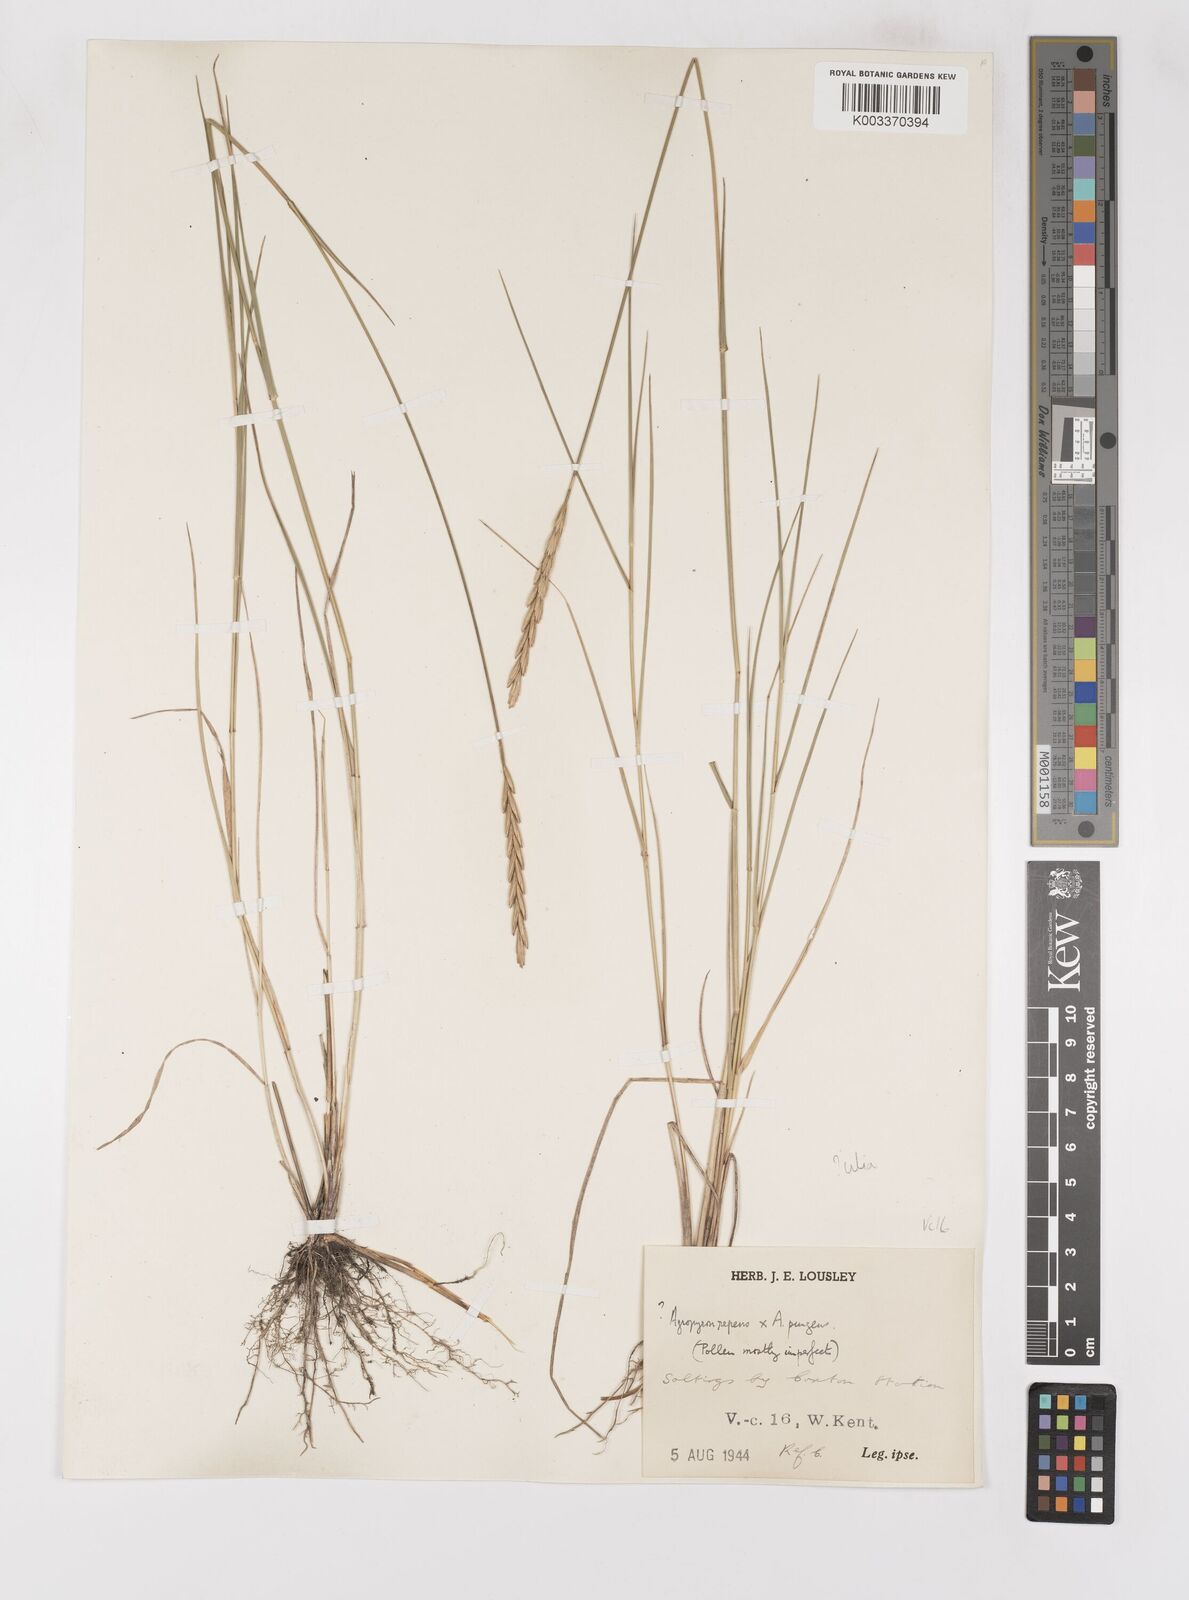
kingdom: Plantae
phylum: Tracheophyta
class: Liliopsida
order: Poales
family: Poaceae
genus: Elymus
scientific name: Elymus oliveri
